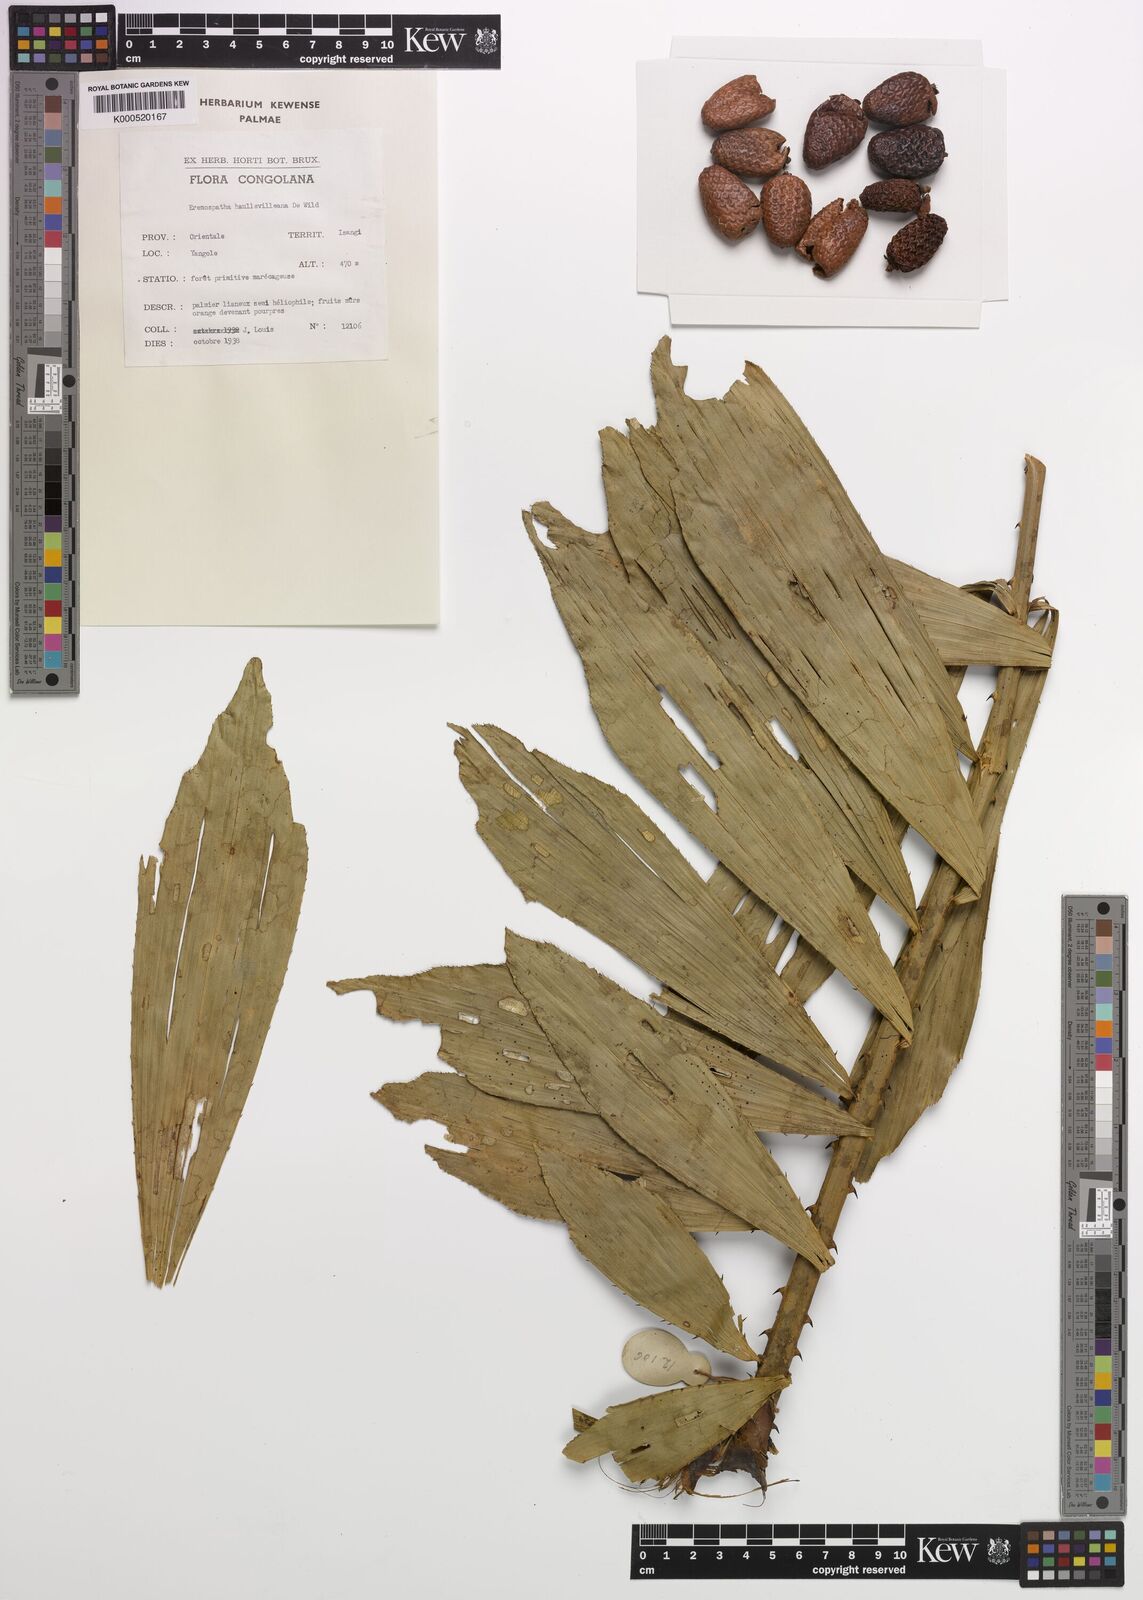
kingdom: Plantae
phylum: Tracheophyta
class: Liliopsida
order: Arecales
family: Arecaceae
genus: Eremospatha
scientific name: Eremospatha haullevilleana
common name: Rattan
